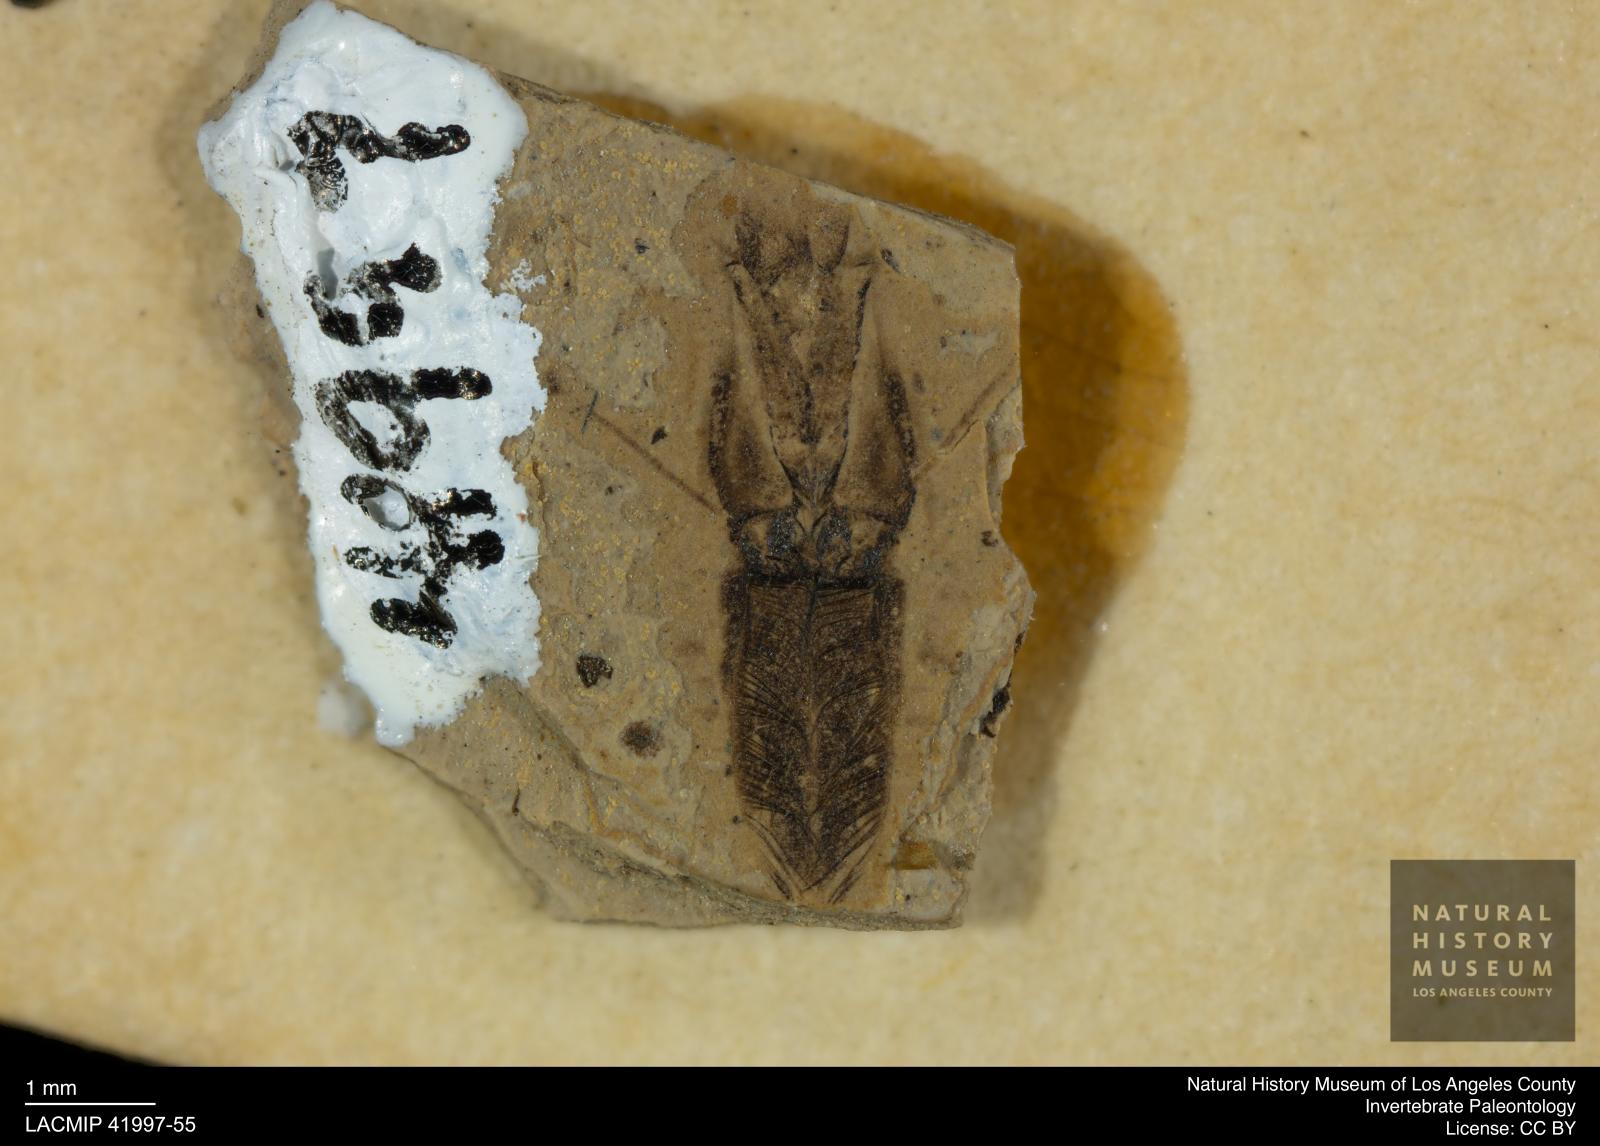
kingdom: Animalia
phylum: Arthropoda
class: Insecta
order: Hemiptera
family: Notonectidae
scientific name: Notonectidae
